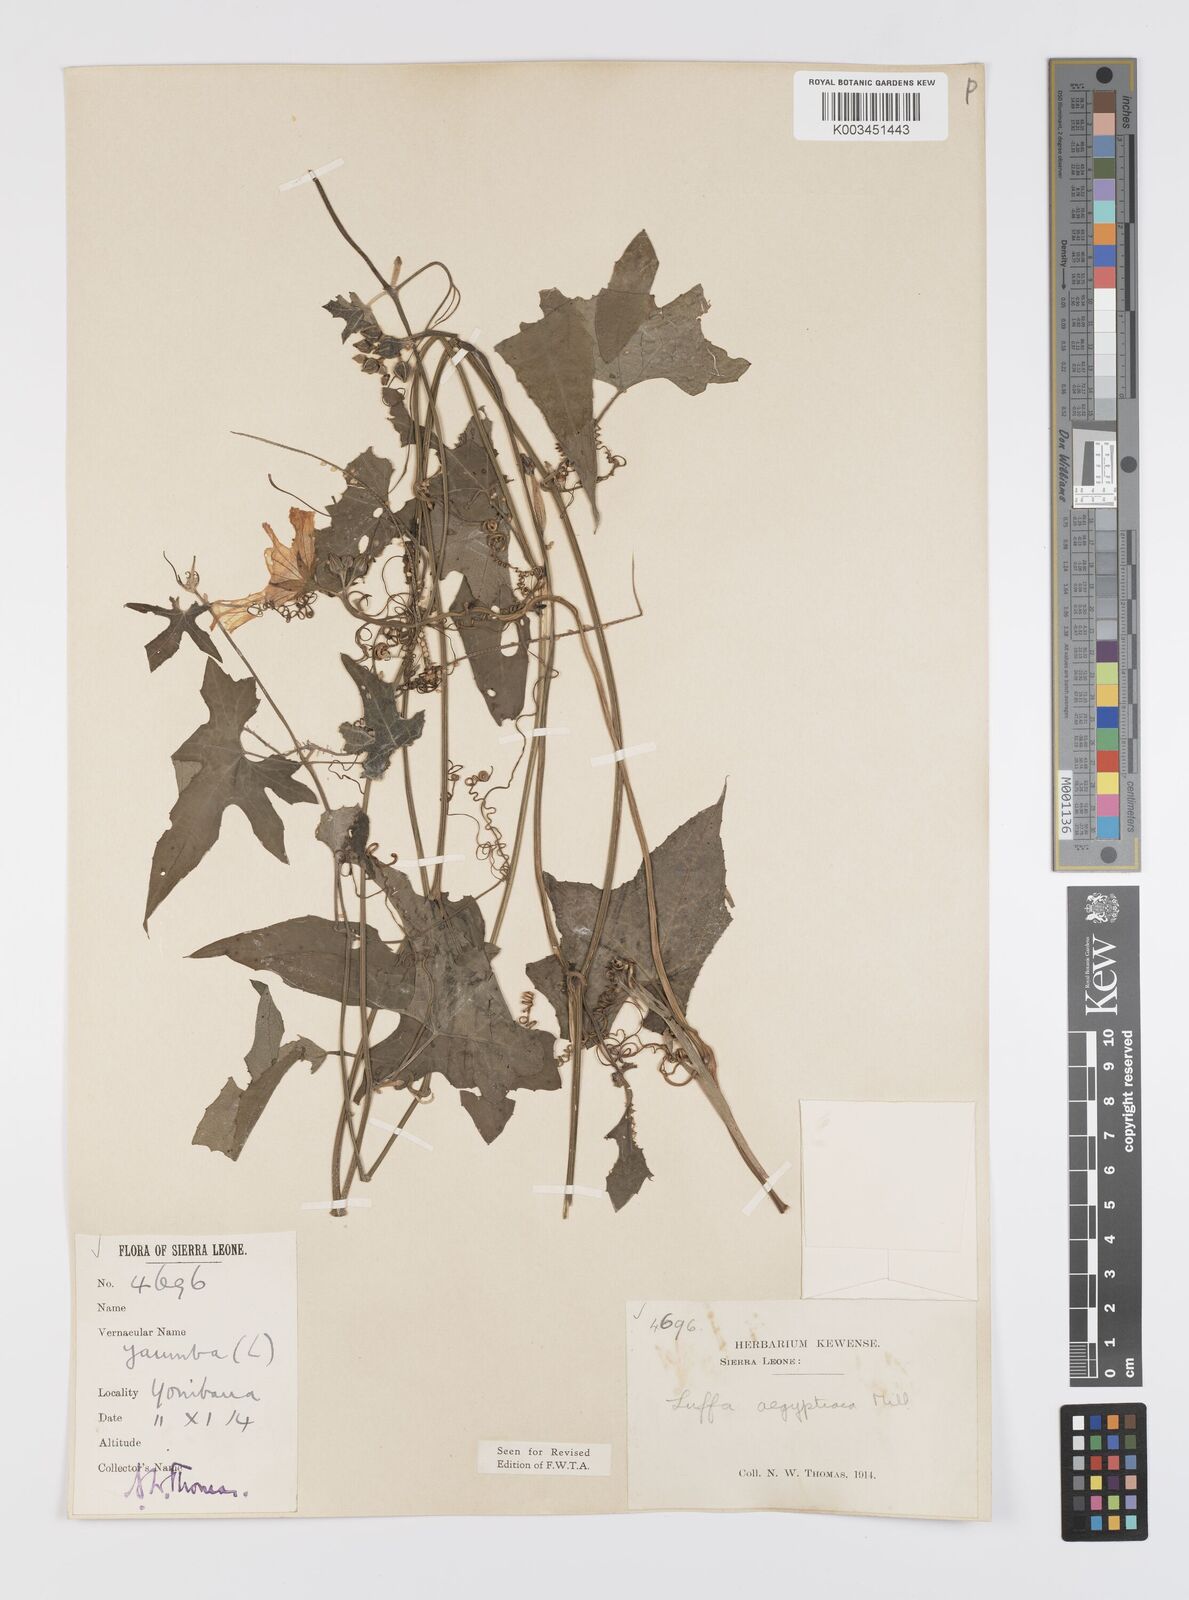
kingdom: Plantae
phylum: Tracheophyta
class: Magnoliopsida
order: Cucurbitales
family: Cucurbitaceae
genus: Luffa
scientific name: Luffa aegyptiaca
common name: Sponge gourd
